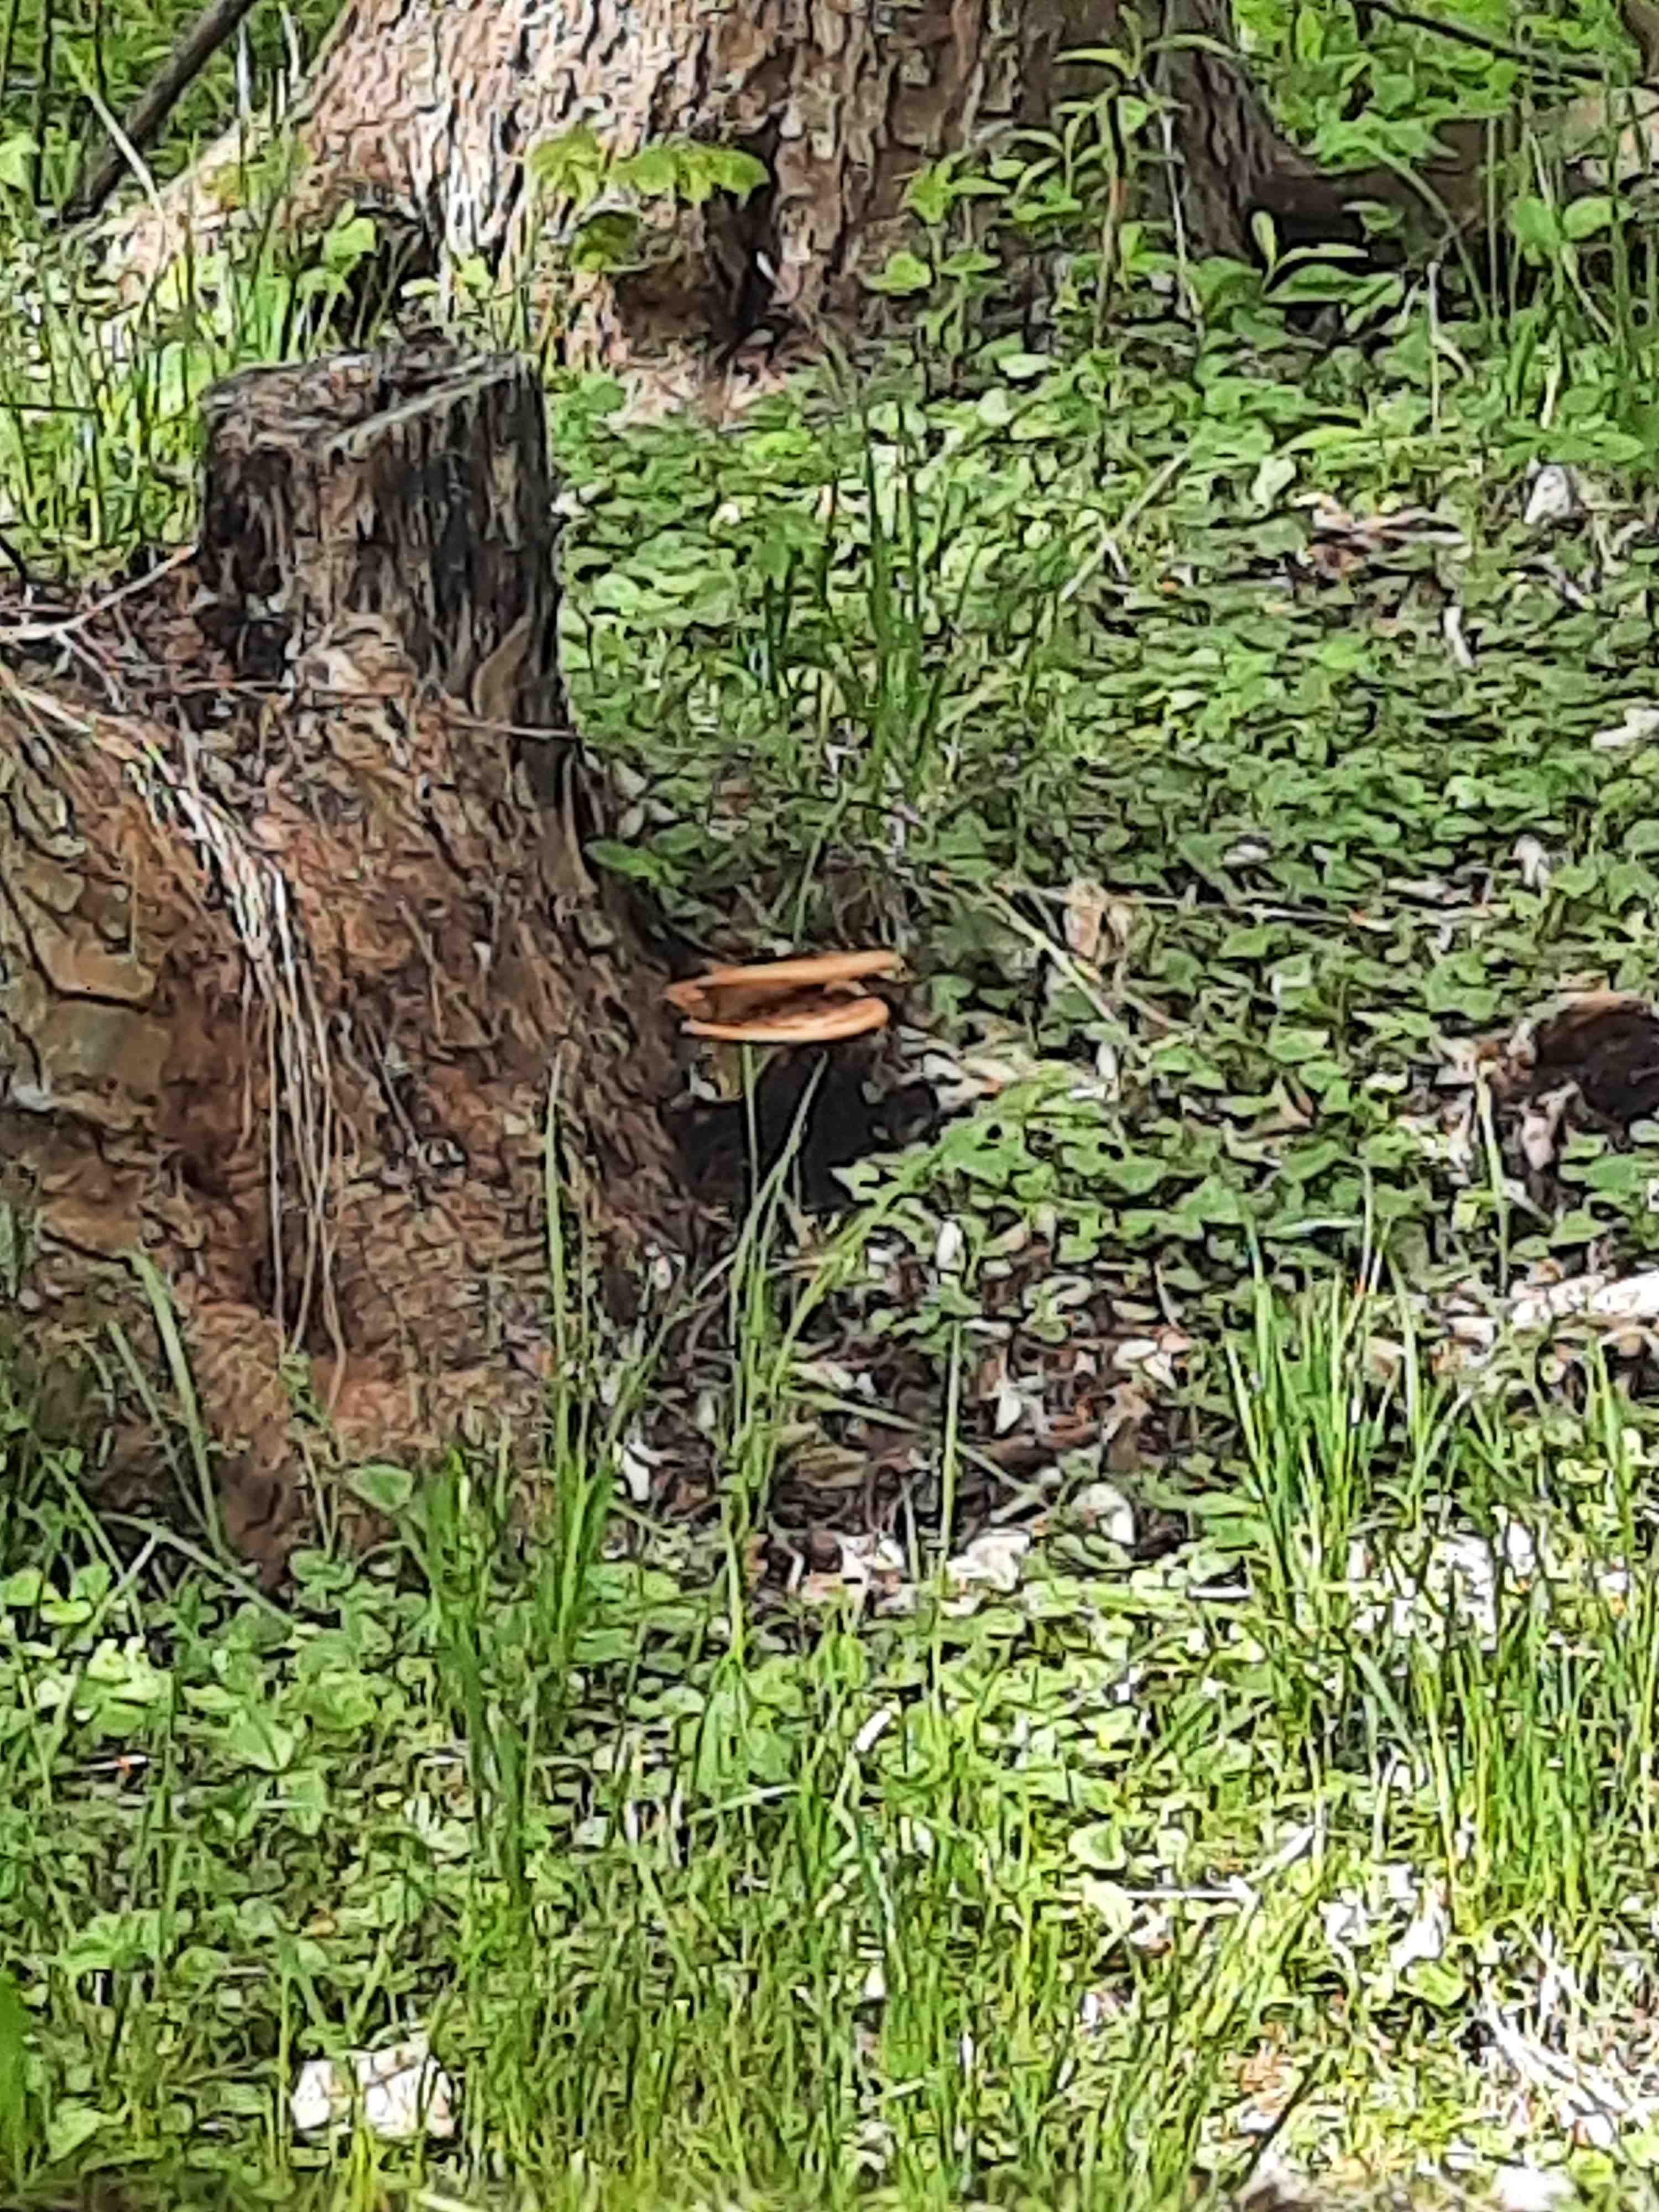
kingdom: Fungi
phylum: Basidiomycota
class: Agaricomycetes
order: Polyporales
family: Polyporaceae
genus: Cerioporus
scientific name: Cerioporus squamosus
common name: skællet stilkporesvamp
